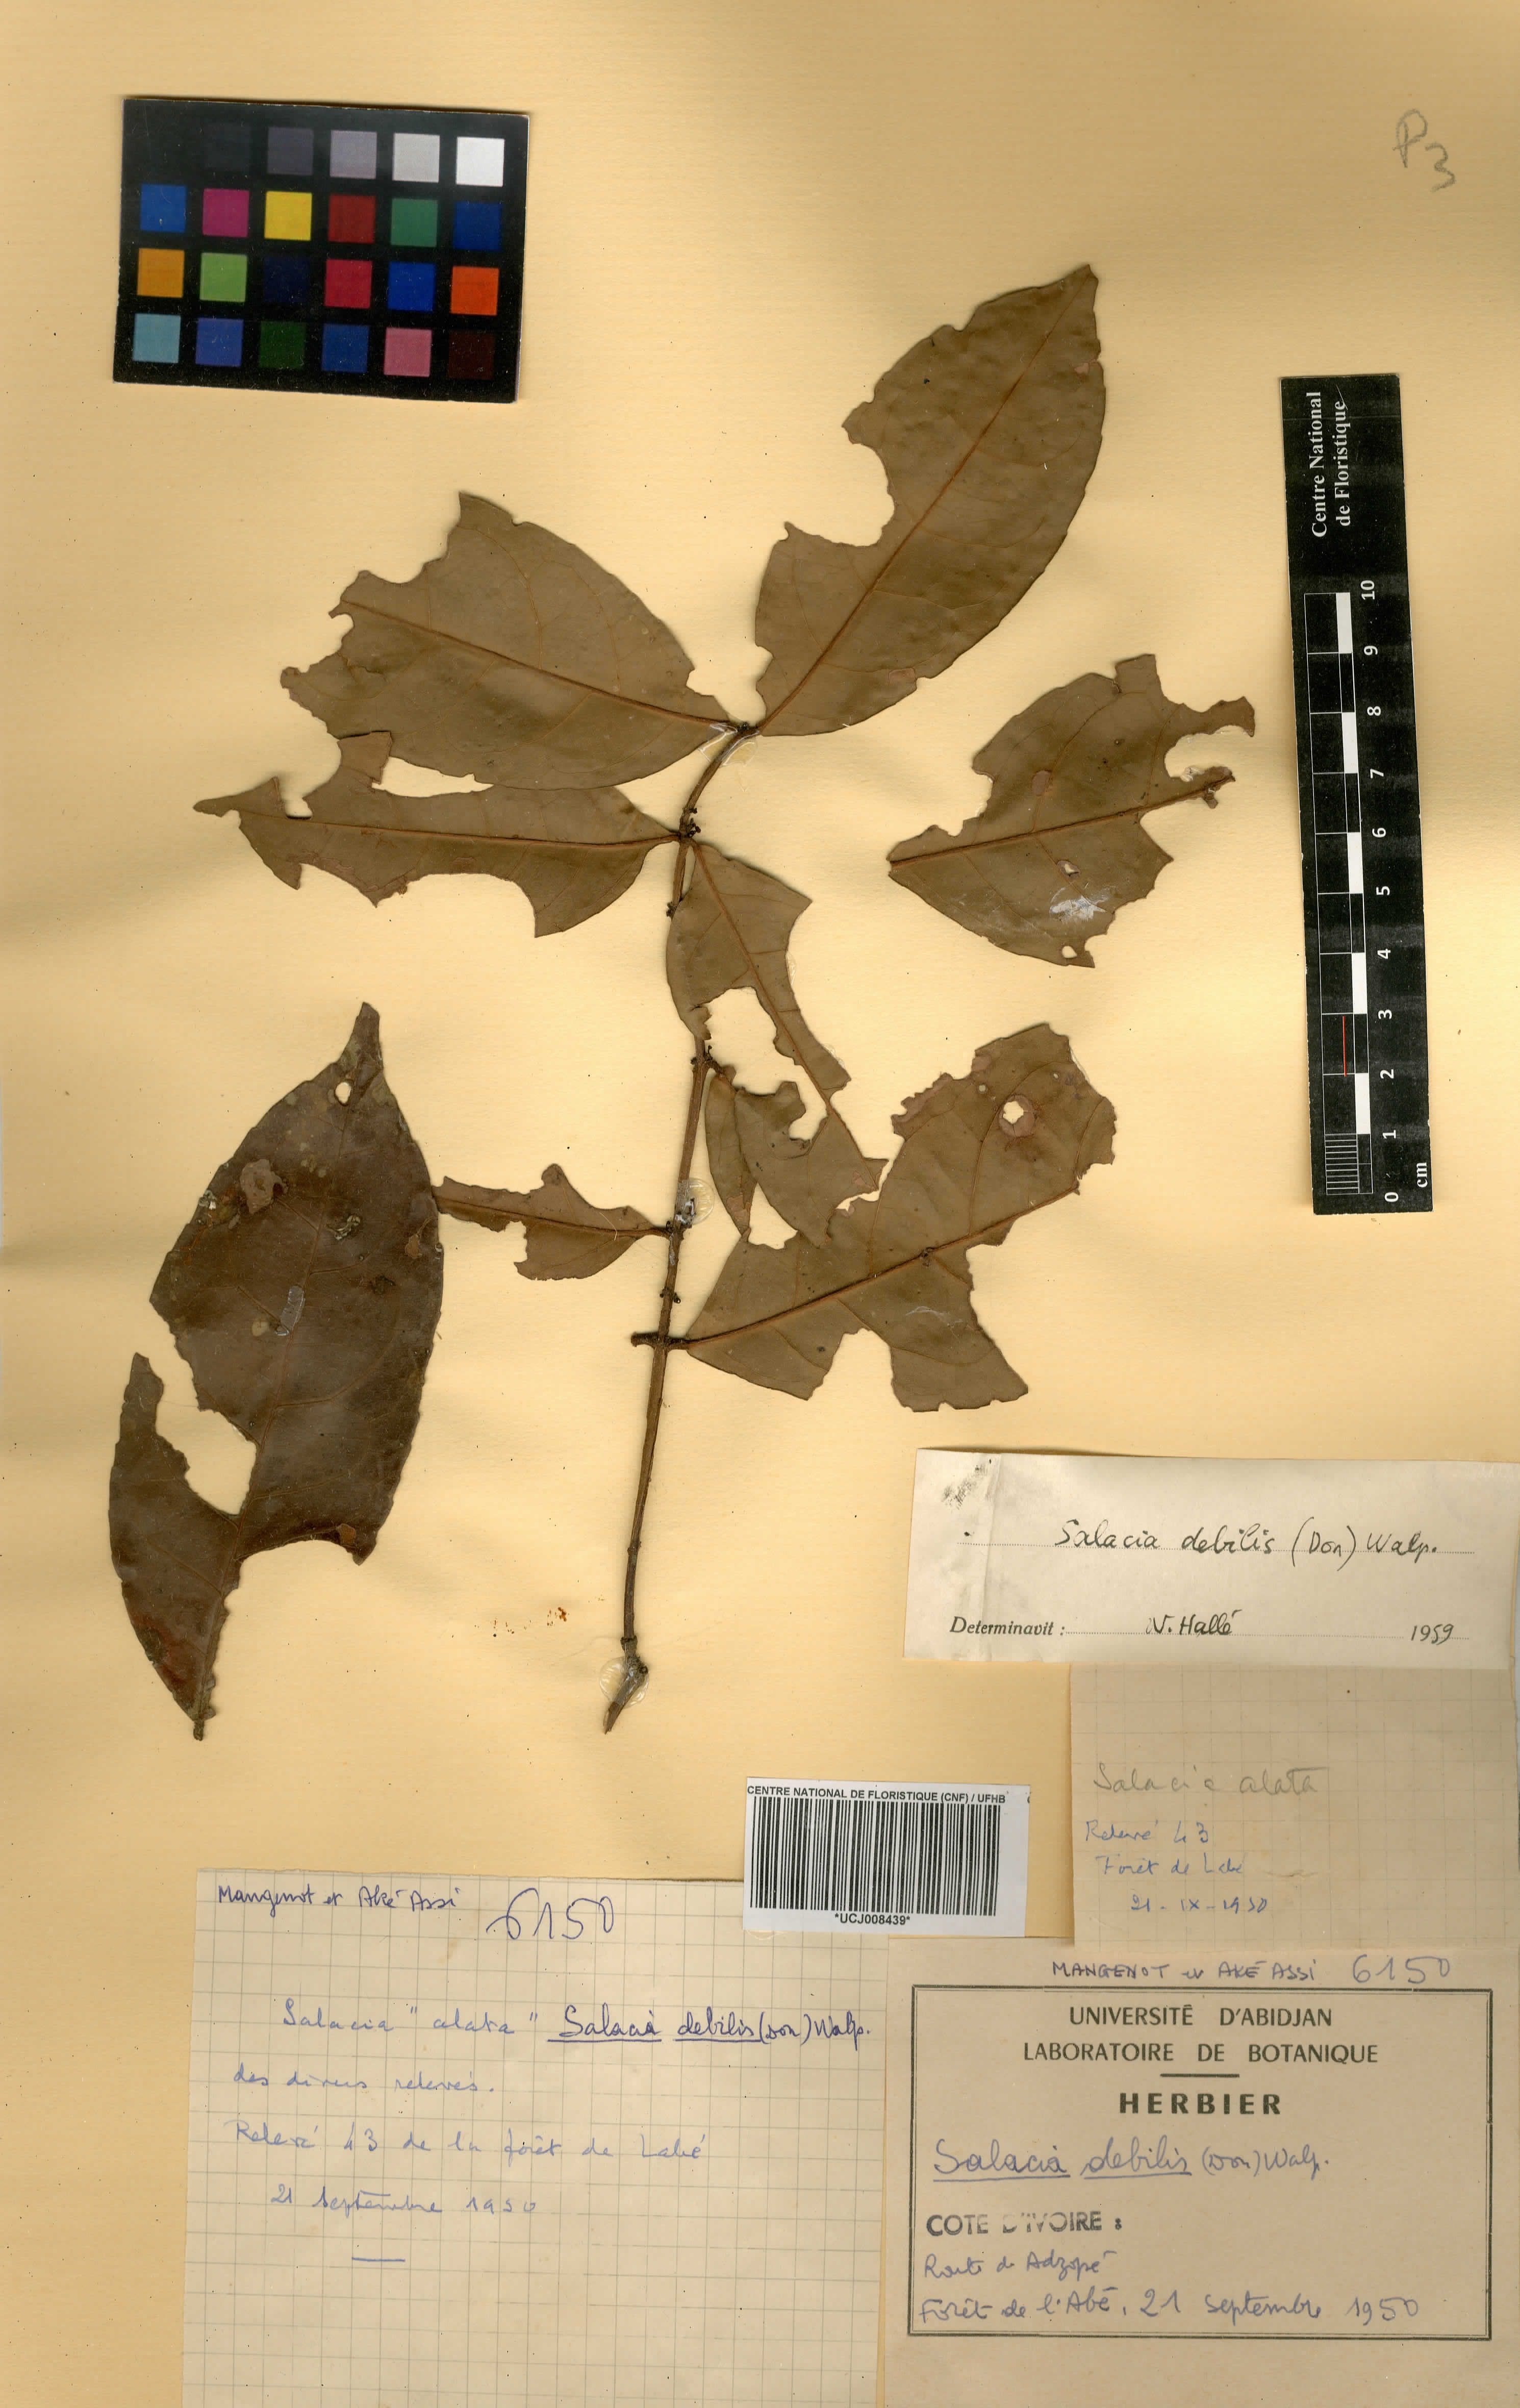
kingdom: Plantae
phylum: Tracheophyta
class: Magnoliopsida
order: Celastrales
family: Celastraceae
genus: Salacia
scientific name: Salacia debilis
